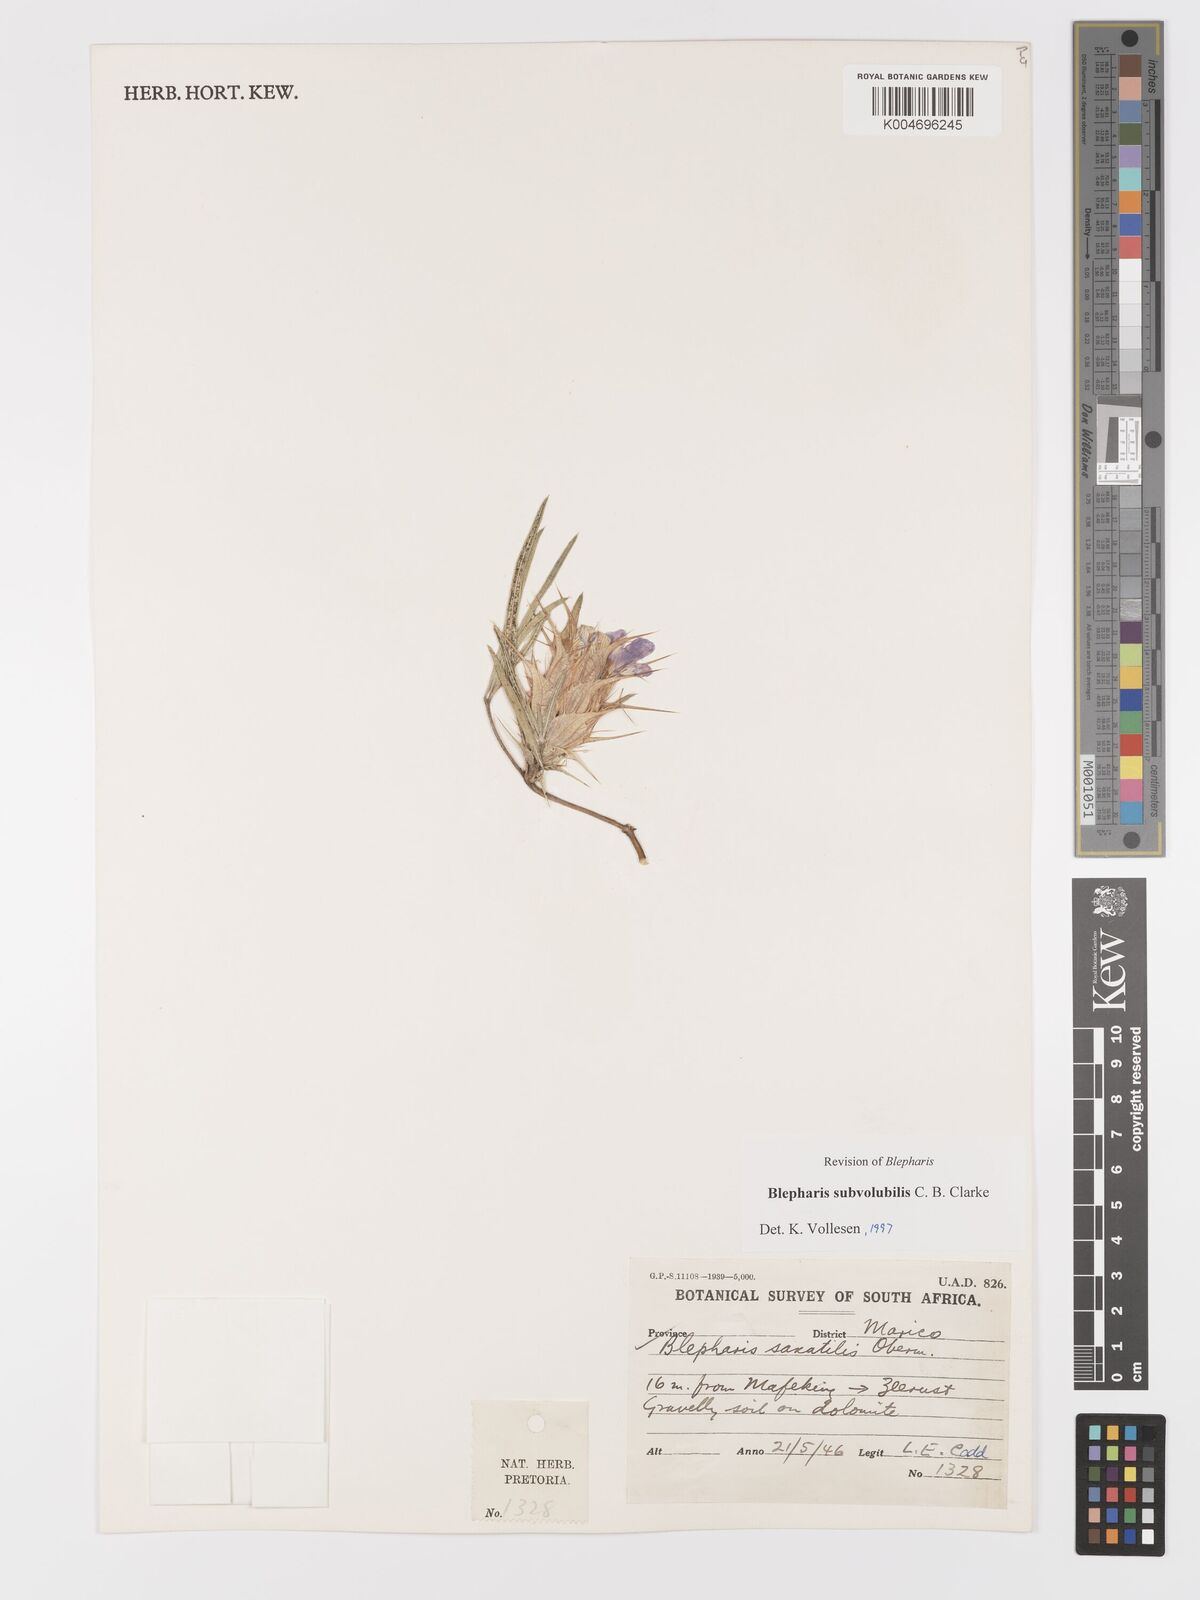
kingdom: Plantae
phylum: Tracheophyta
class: Magnoliopsida
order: Lamiales
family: Acanthaceae
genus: Blepharis
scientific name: Blepharis subvolubilis
